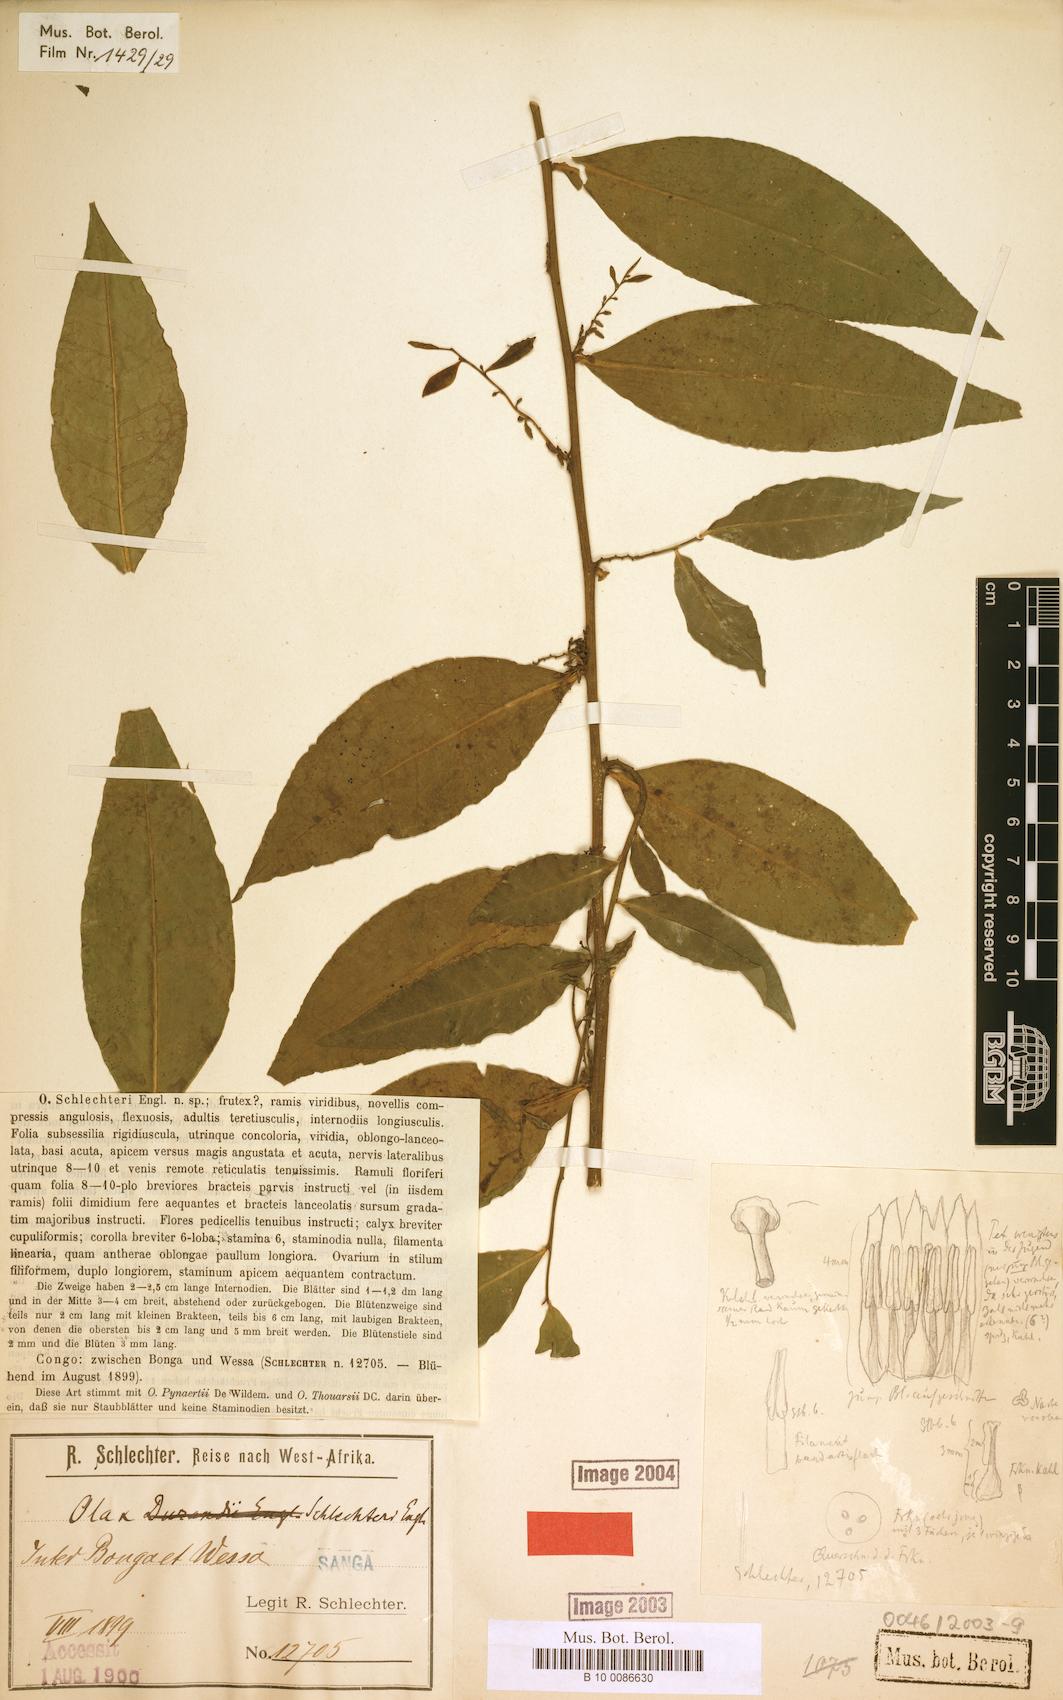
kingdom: Plantae
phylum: Tracheophyta
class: Magnoliopsida
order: Santalales
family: Olacaceae
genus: Olax
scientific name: Olax subscorpioidea
